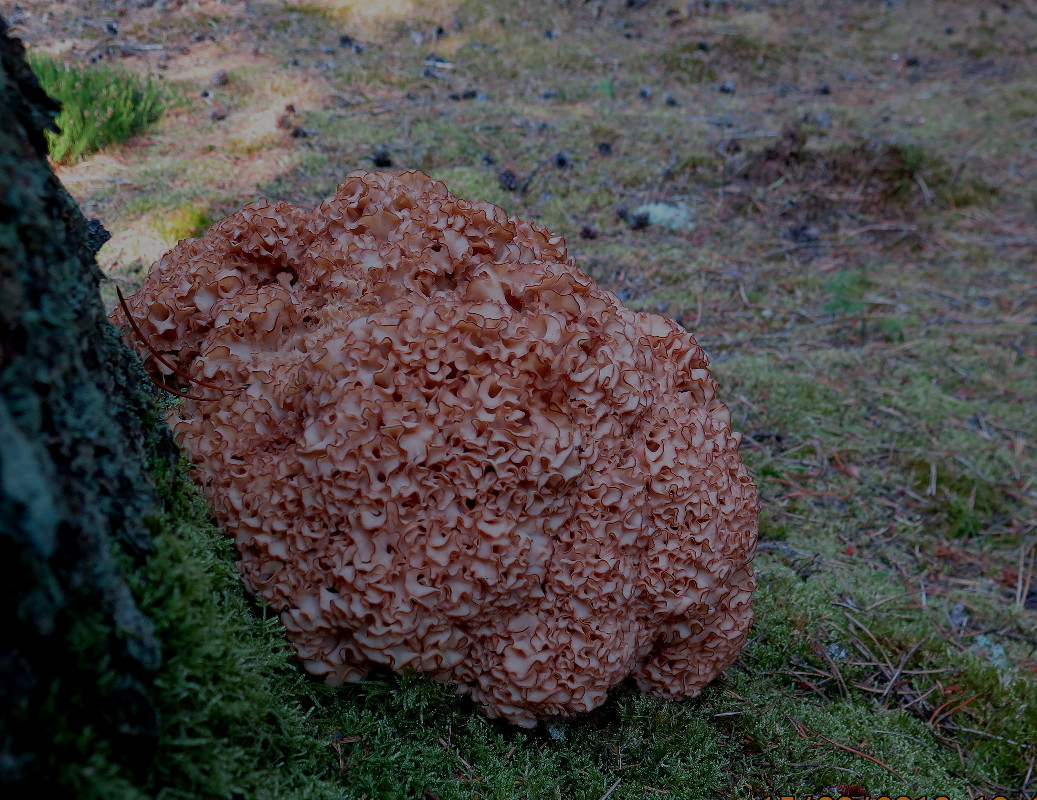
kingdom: Fungi
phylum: Basidiomycota
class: Agaricomycetes
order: Polyporales
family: Sparassidaceae
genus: Sparassis
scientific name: Sparassis crispa
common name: kruset blomkålssvamp
